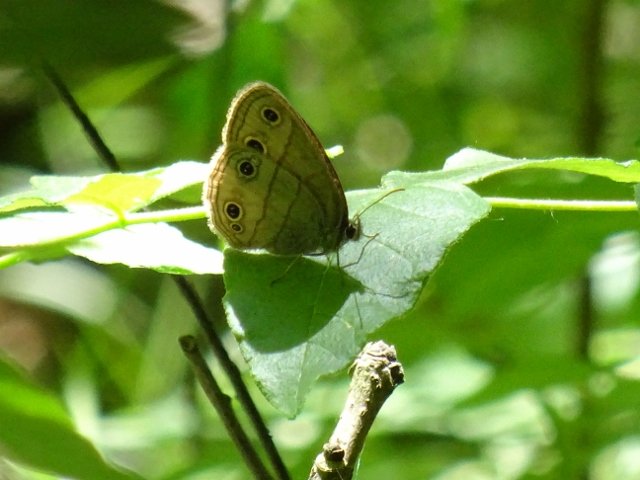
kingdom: Animalia
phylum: Arthropoda
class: Insecta
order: Lepidoptera
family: Nymphalidae
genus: Euptychia
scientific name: Euptychia cymela
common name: Little Wood Satyr
